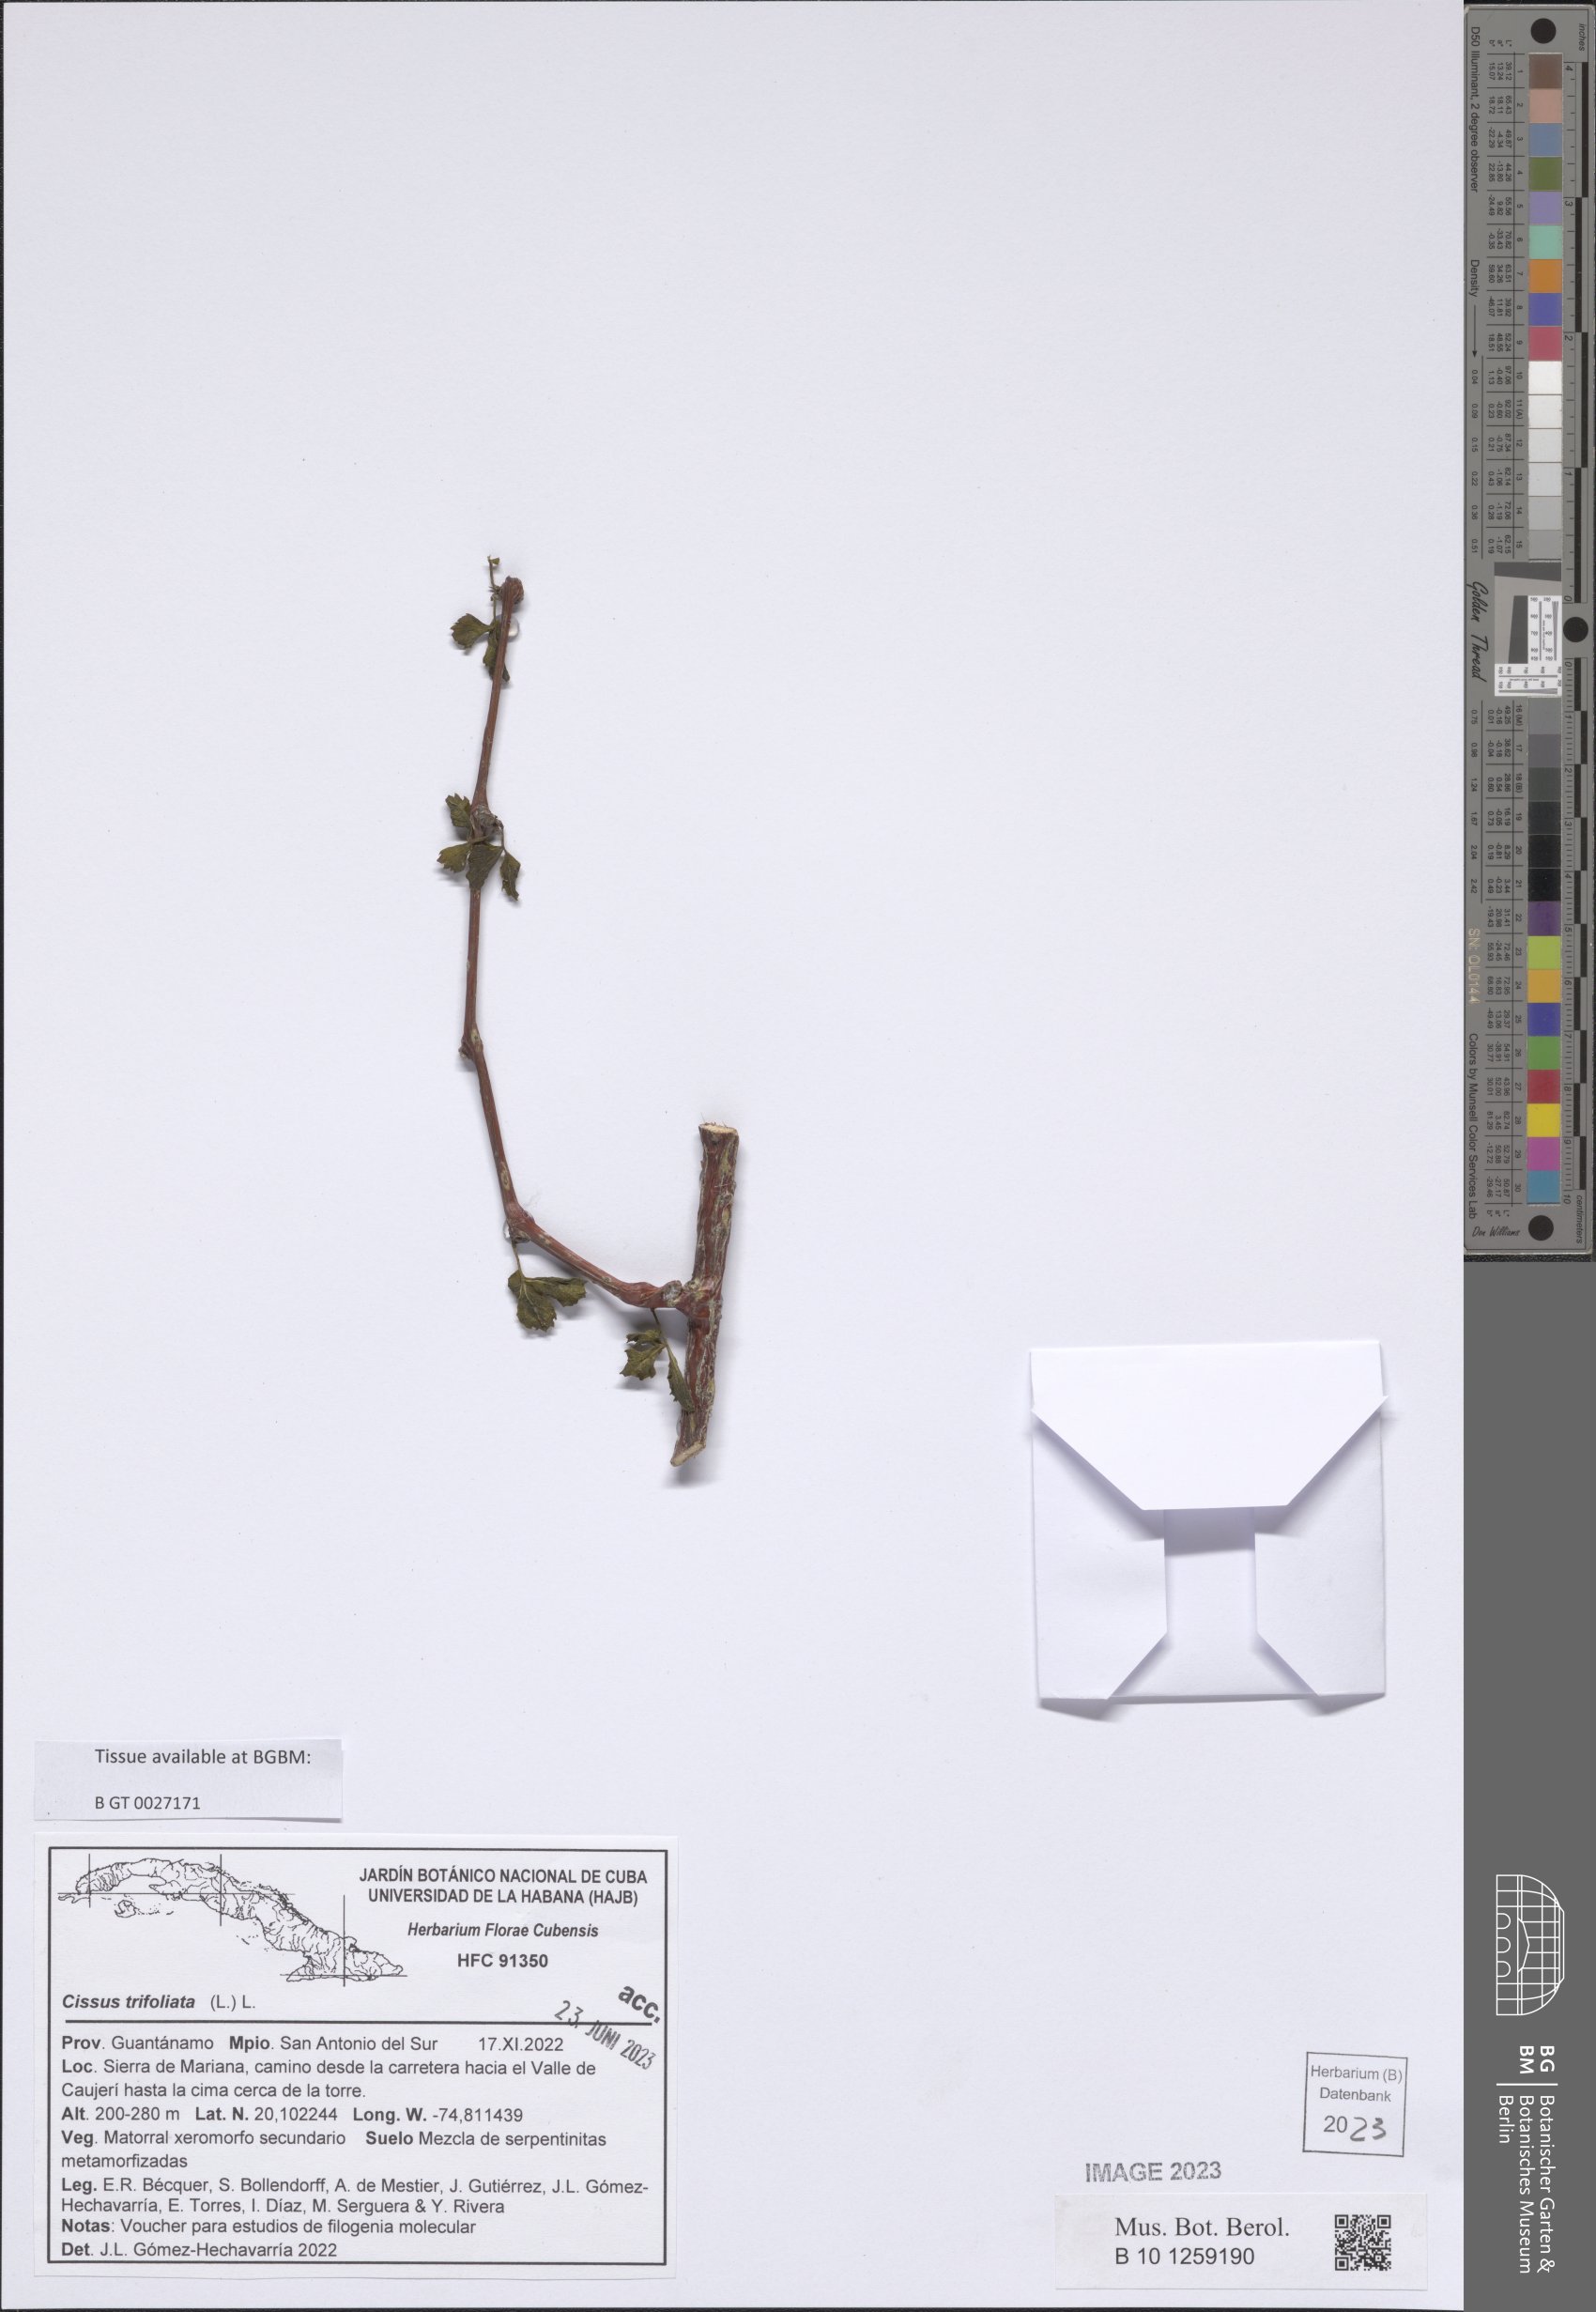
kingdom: Plantae
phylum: Tracheophyta
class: Magnoliopsida
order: Vitales
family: Vitaceae
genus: Cissus
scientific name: Cissus trifoliata
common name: Vine-sorrel
